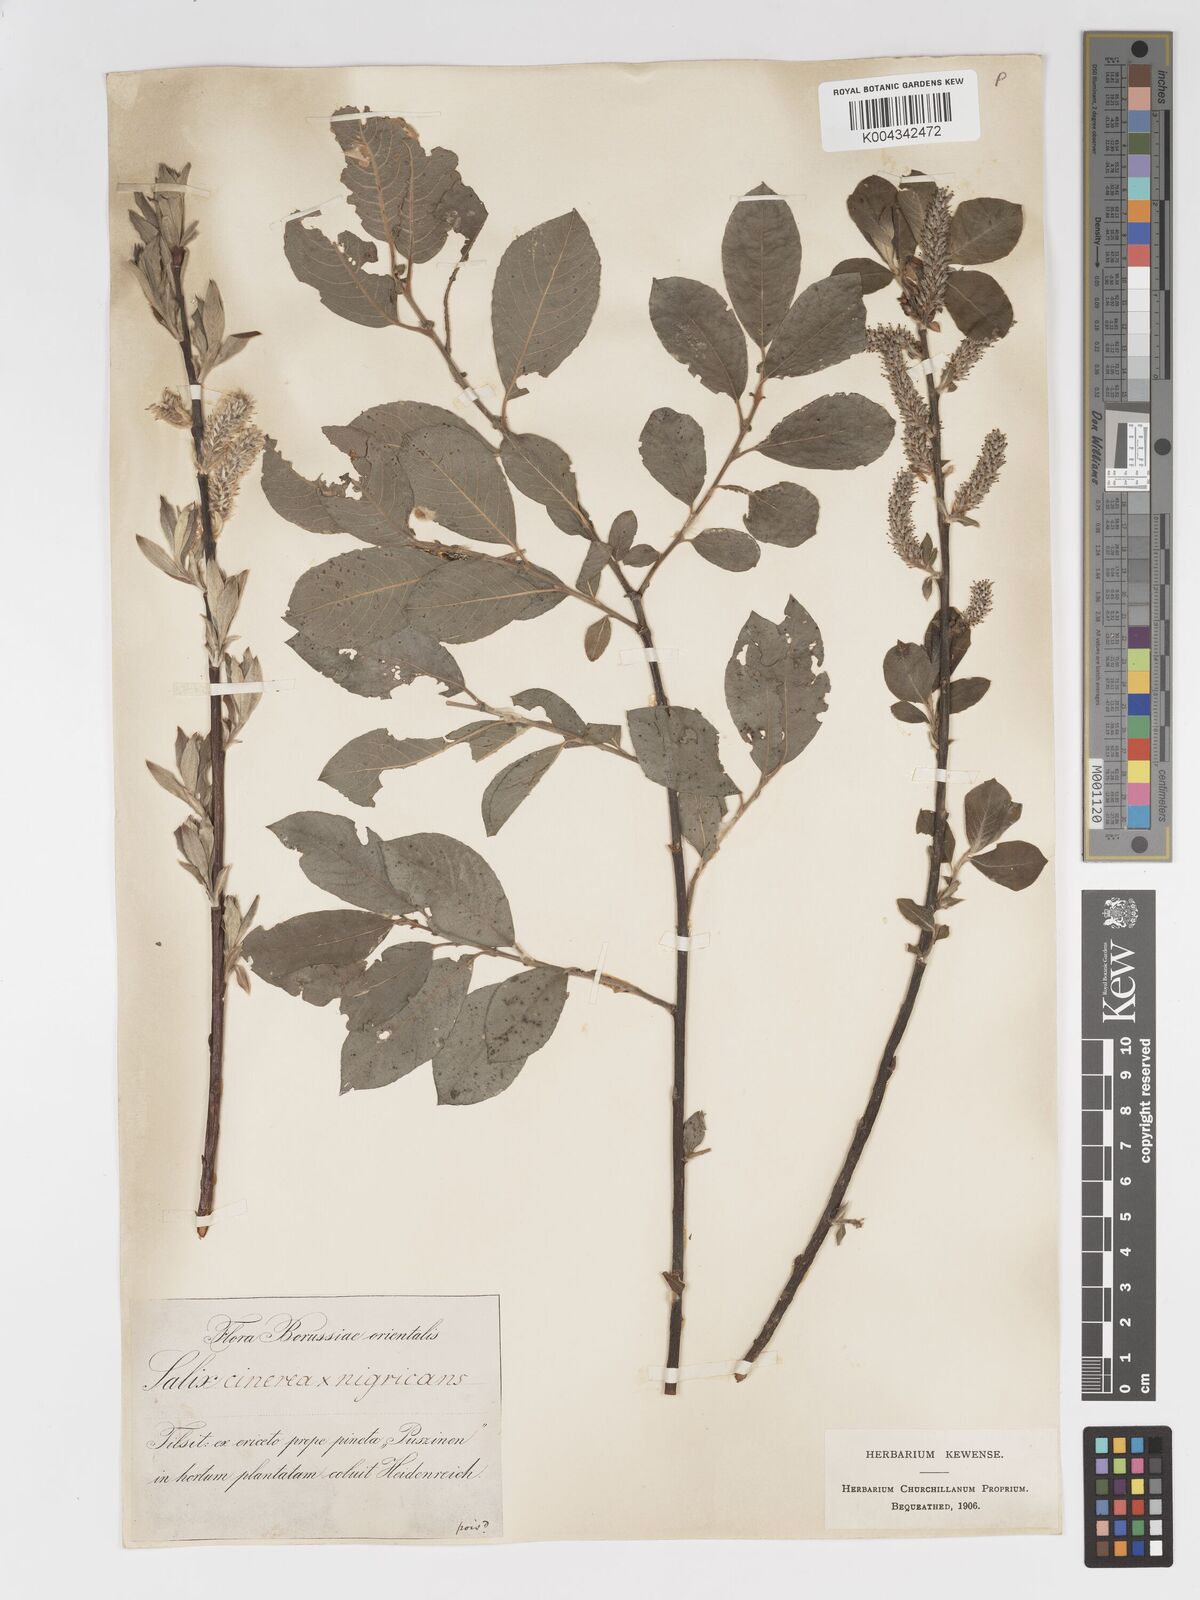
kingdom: Plantae
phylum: Tracheophyta
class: Magnoliopsida
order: Malpighiales
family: Salicaceae
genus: Salix
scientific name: Salix
